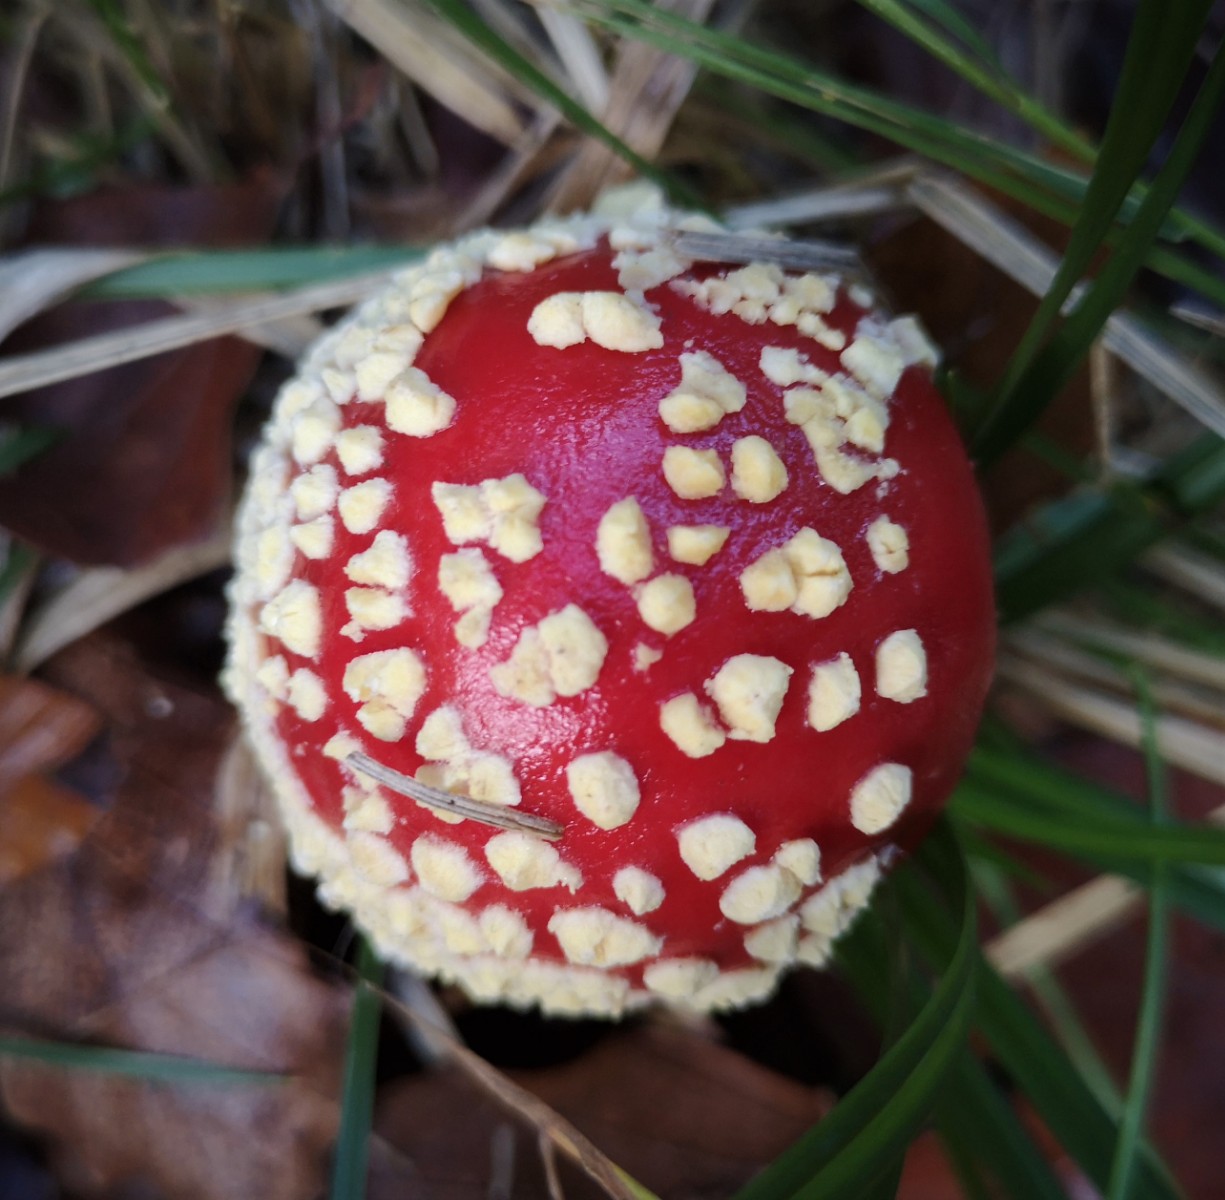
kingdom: Fungi
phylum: Basidiomycota
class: Agaricomycetes
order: Agaricales
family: Amanitaceae
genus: Amanita
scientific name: Amanita muscaria
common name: rød fluesvamp
